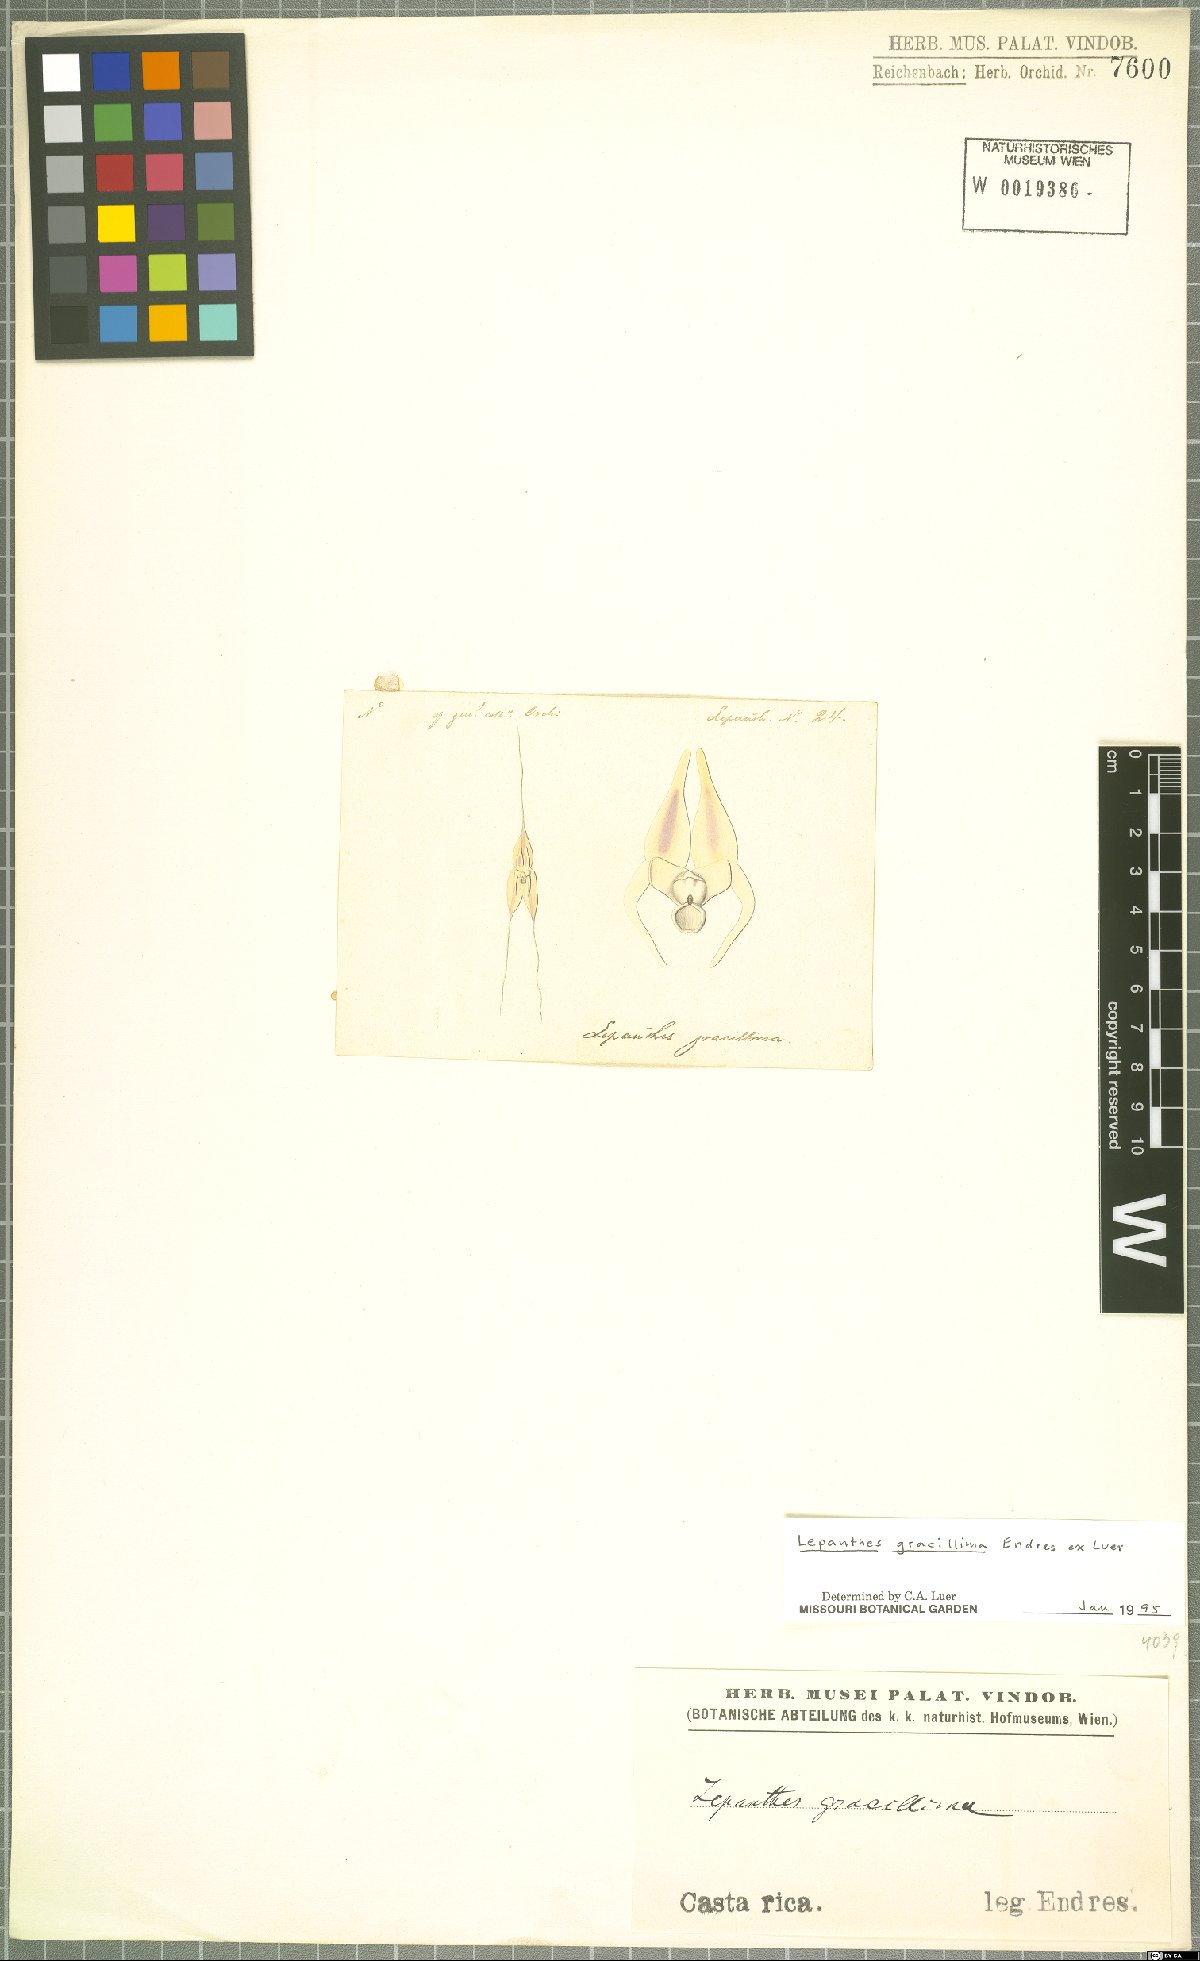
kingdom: Plantae
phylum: Tracheophyta
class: Liliopsida
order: Asparagales
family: Orchidaceae
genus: Lepanthes
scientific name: Lepanthes gracillima
